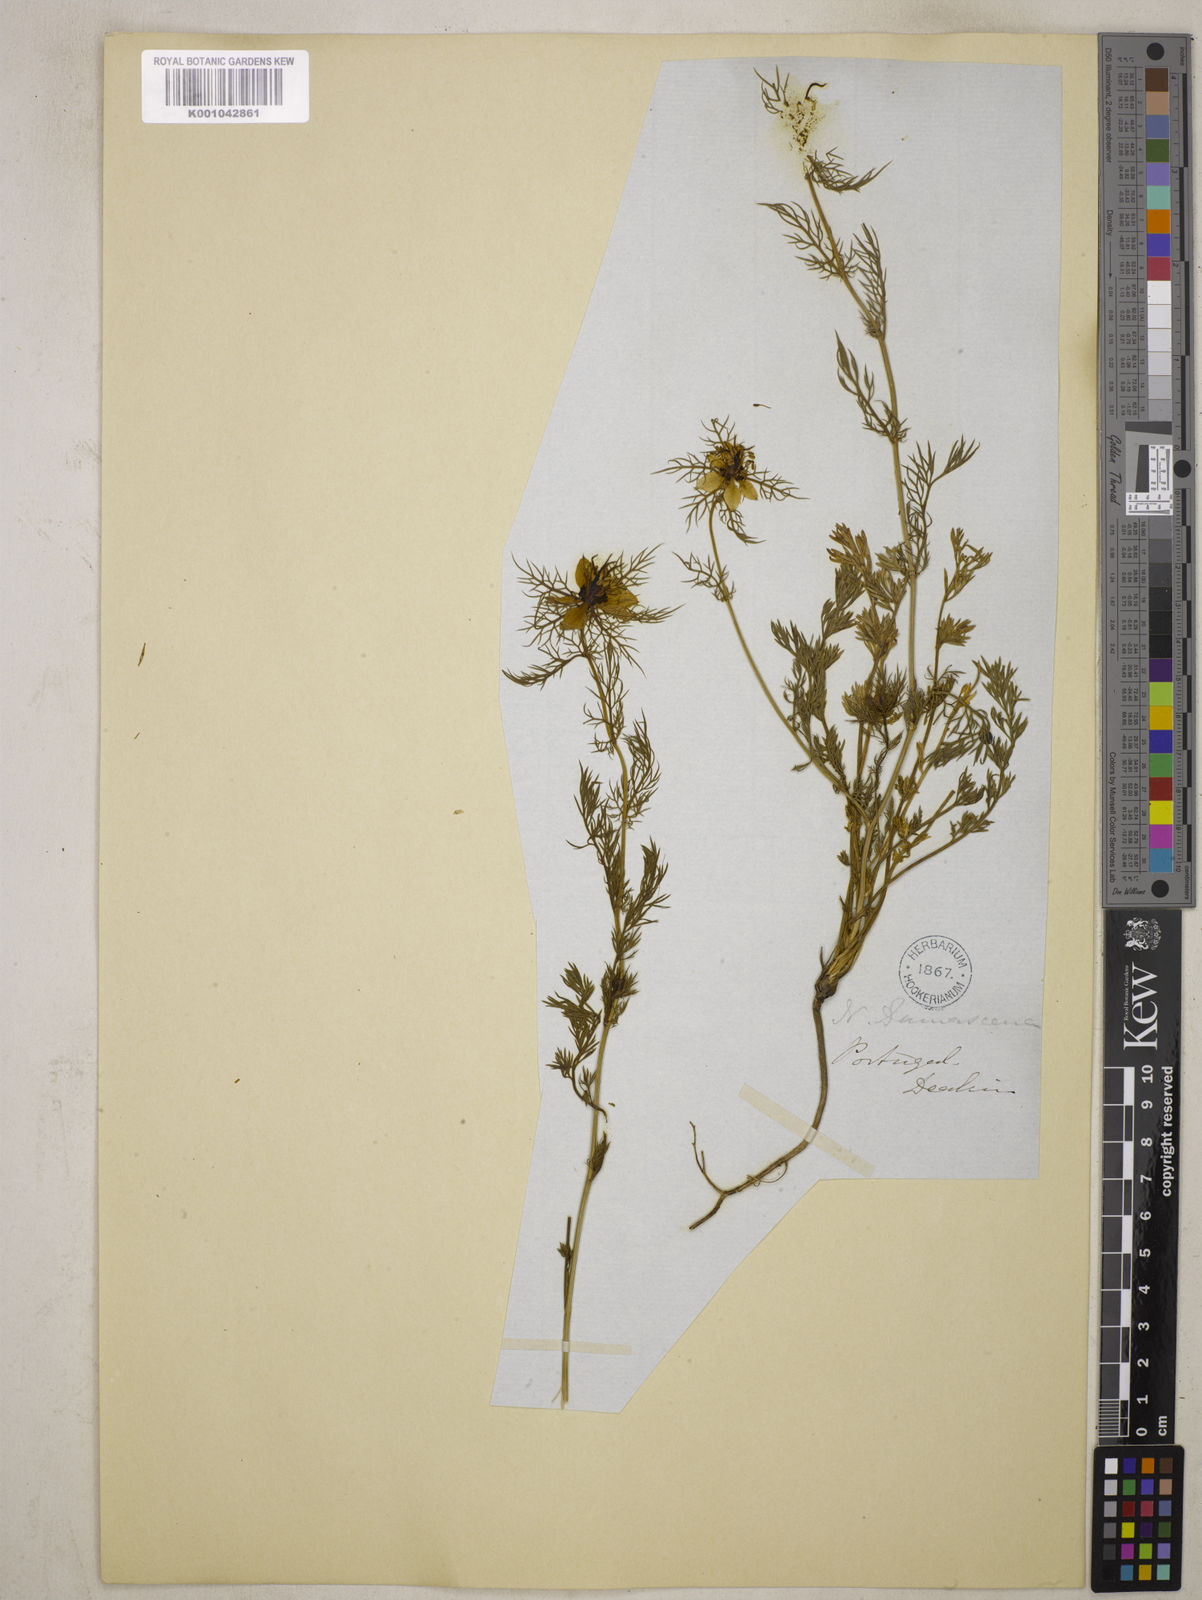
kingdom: Plantae
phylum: Tracheophyta
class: Magnoliopsida
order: Ranunculales
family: Ranunculaceae
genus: Nigella
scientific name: Nigella damascena
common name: Love-in-a-mist
